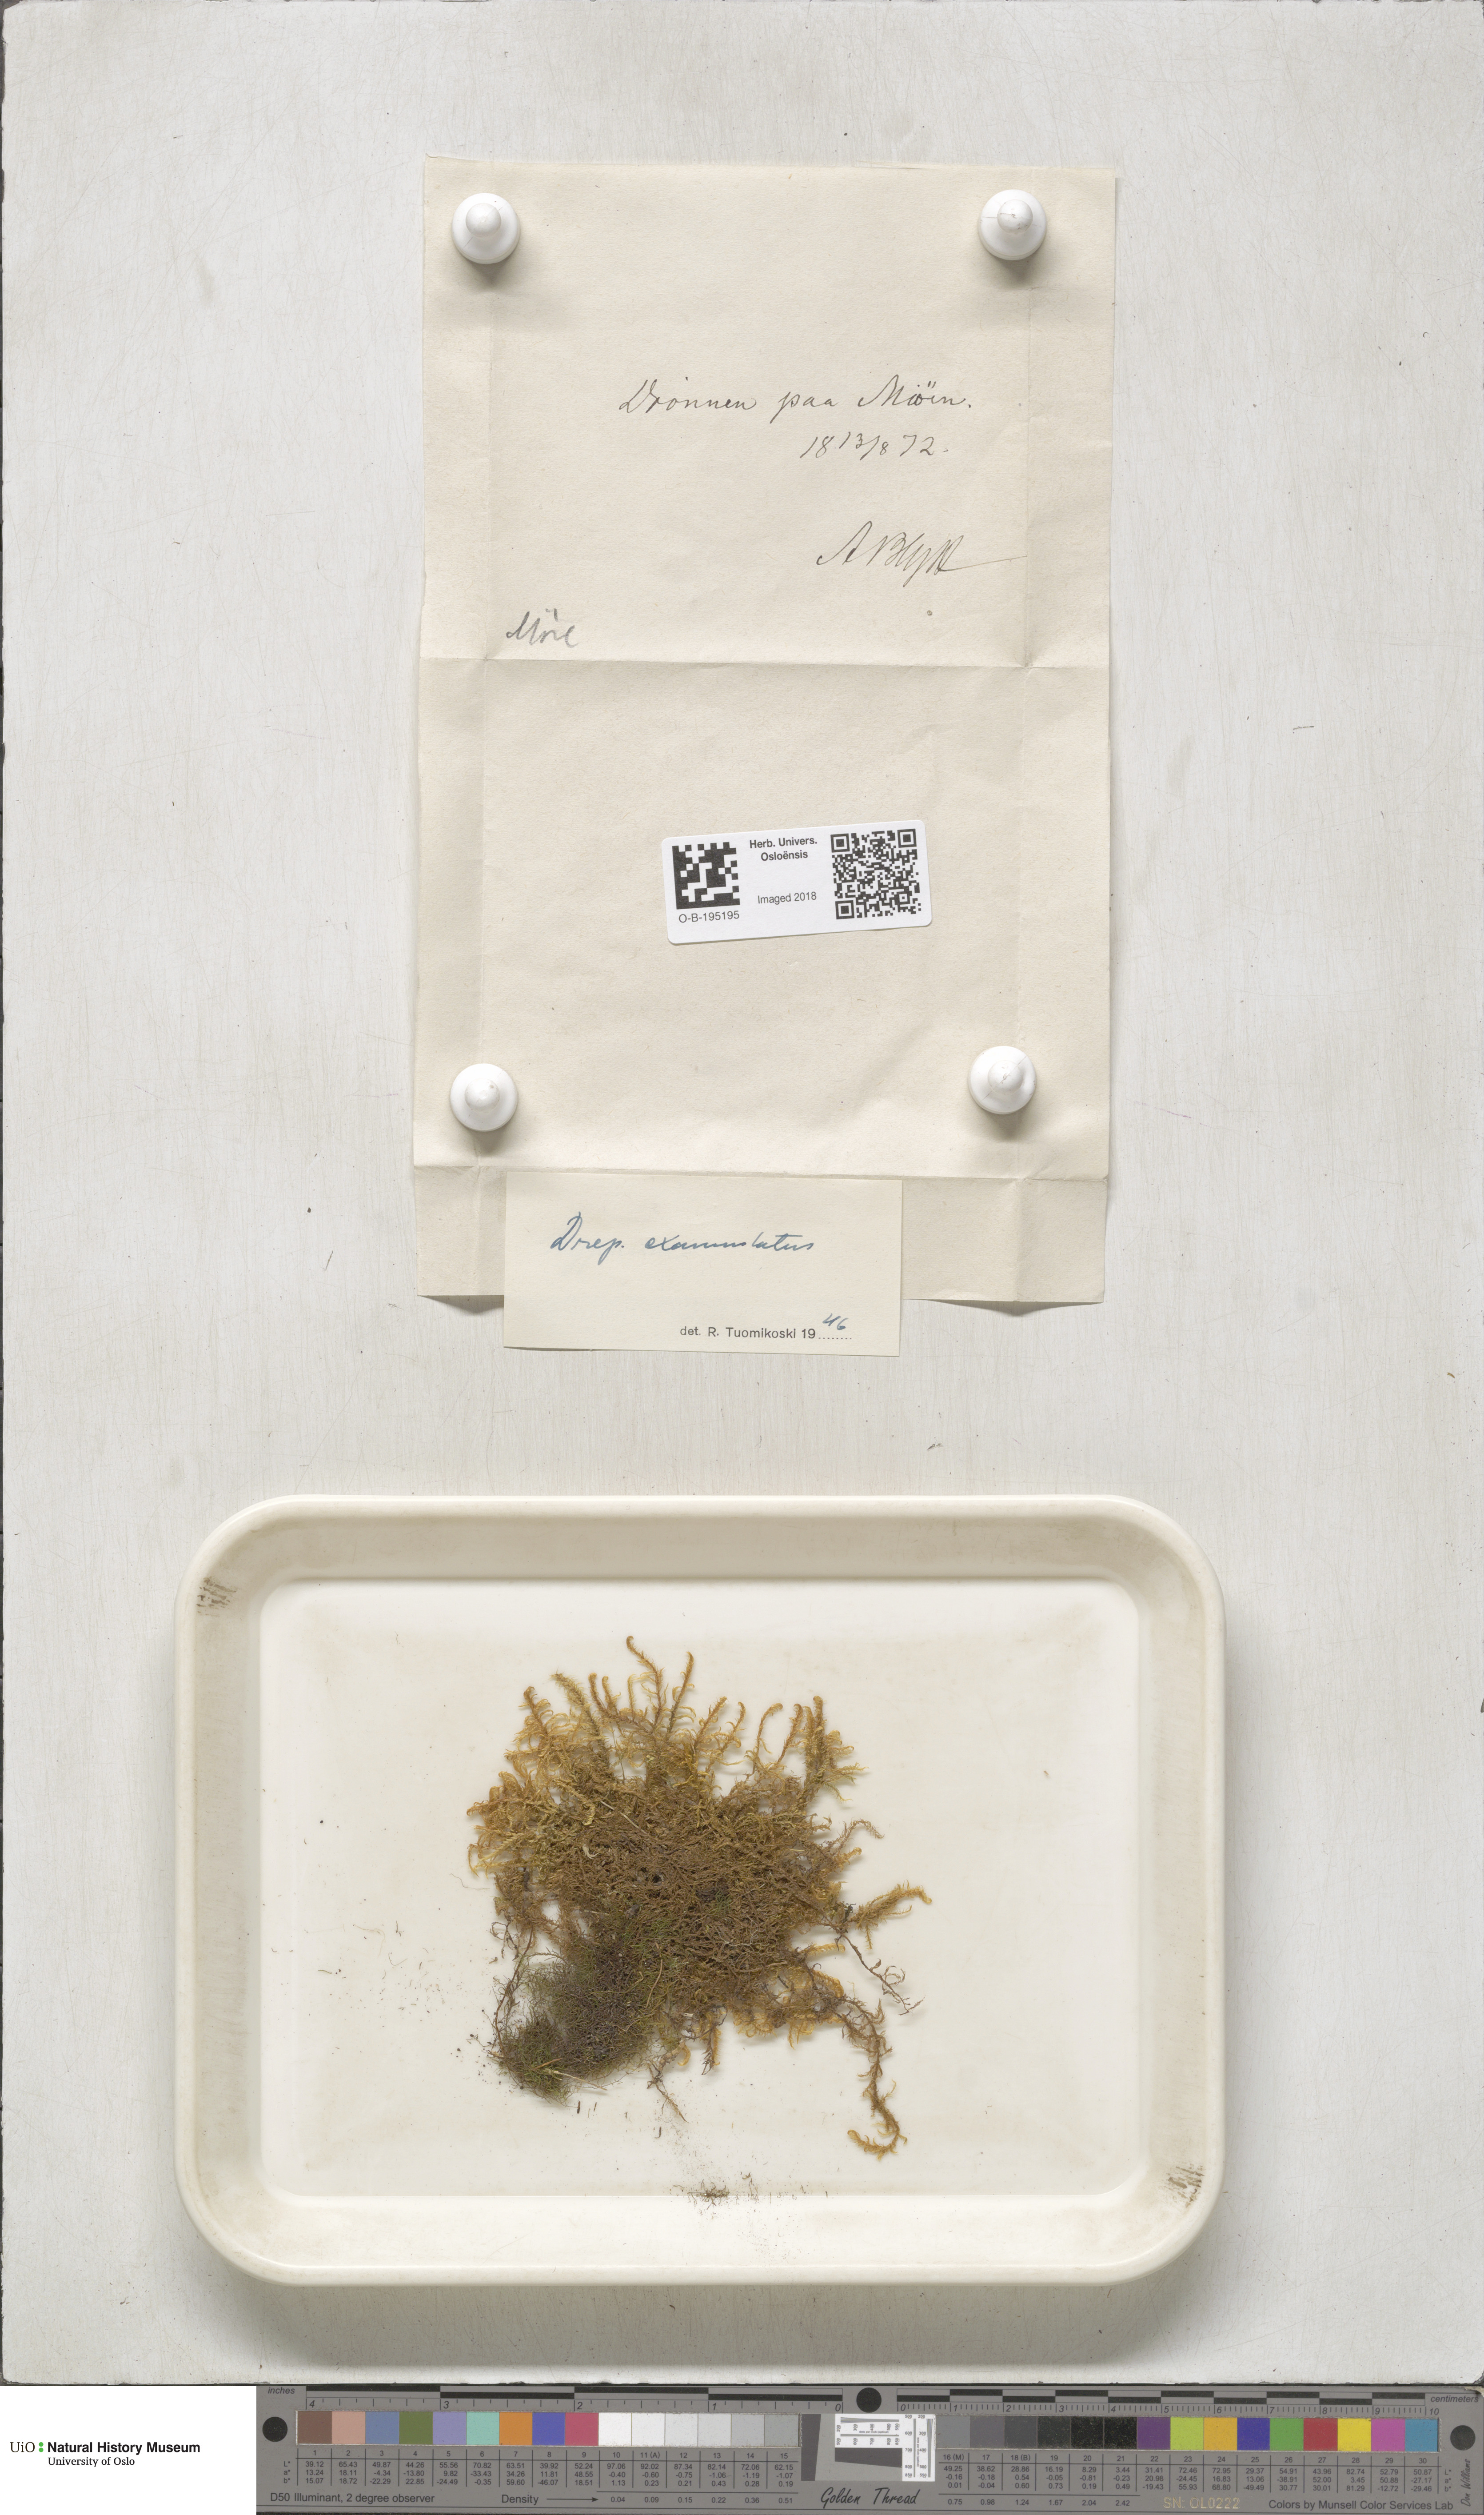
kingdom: Plantae
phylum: Bryophyta
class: Bryopsida
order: Hypnales
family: Calliergonaceae
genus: Sarmentypnum
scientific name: Sarmentypnum exannulatum
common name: Ringless spoon moss
